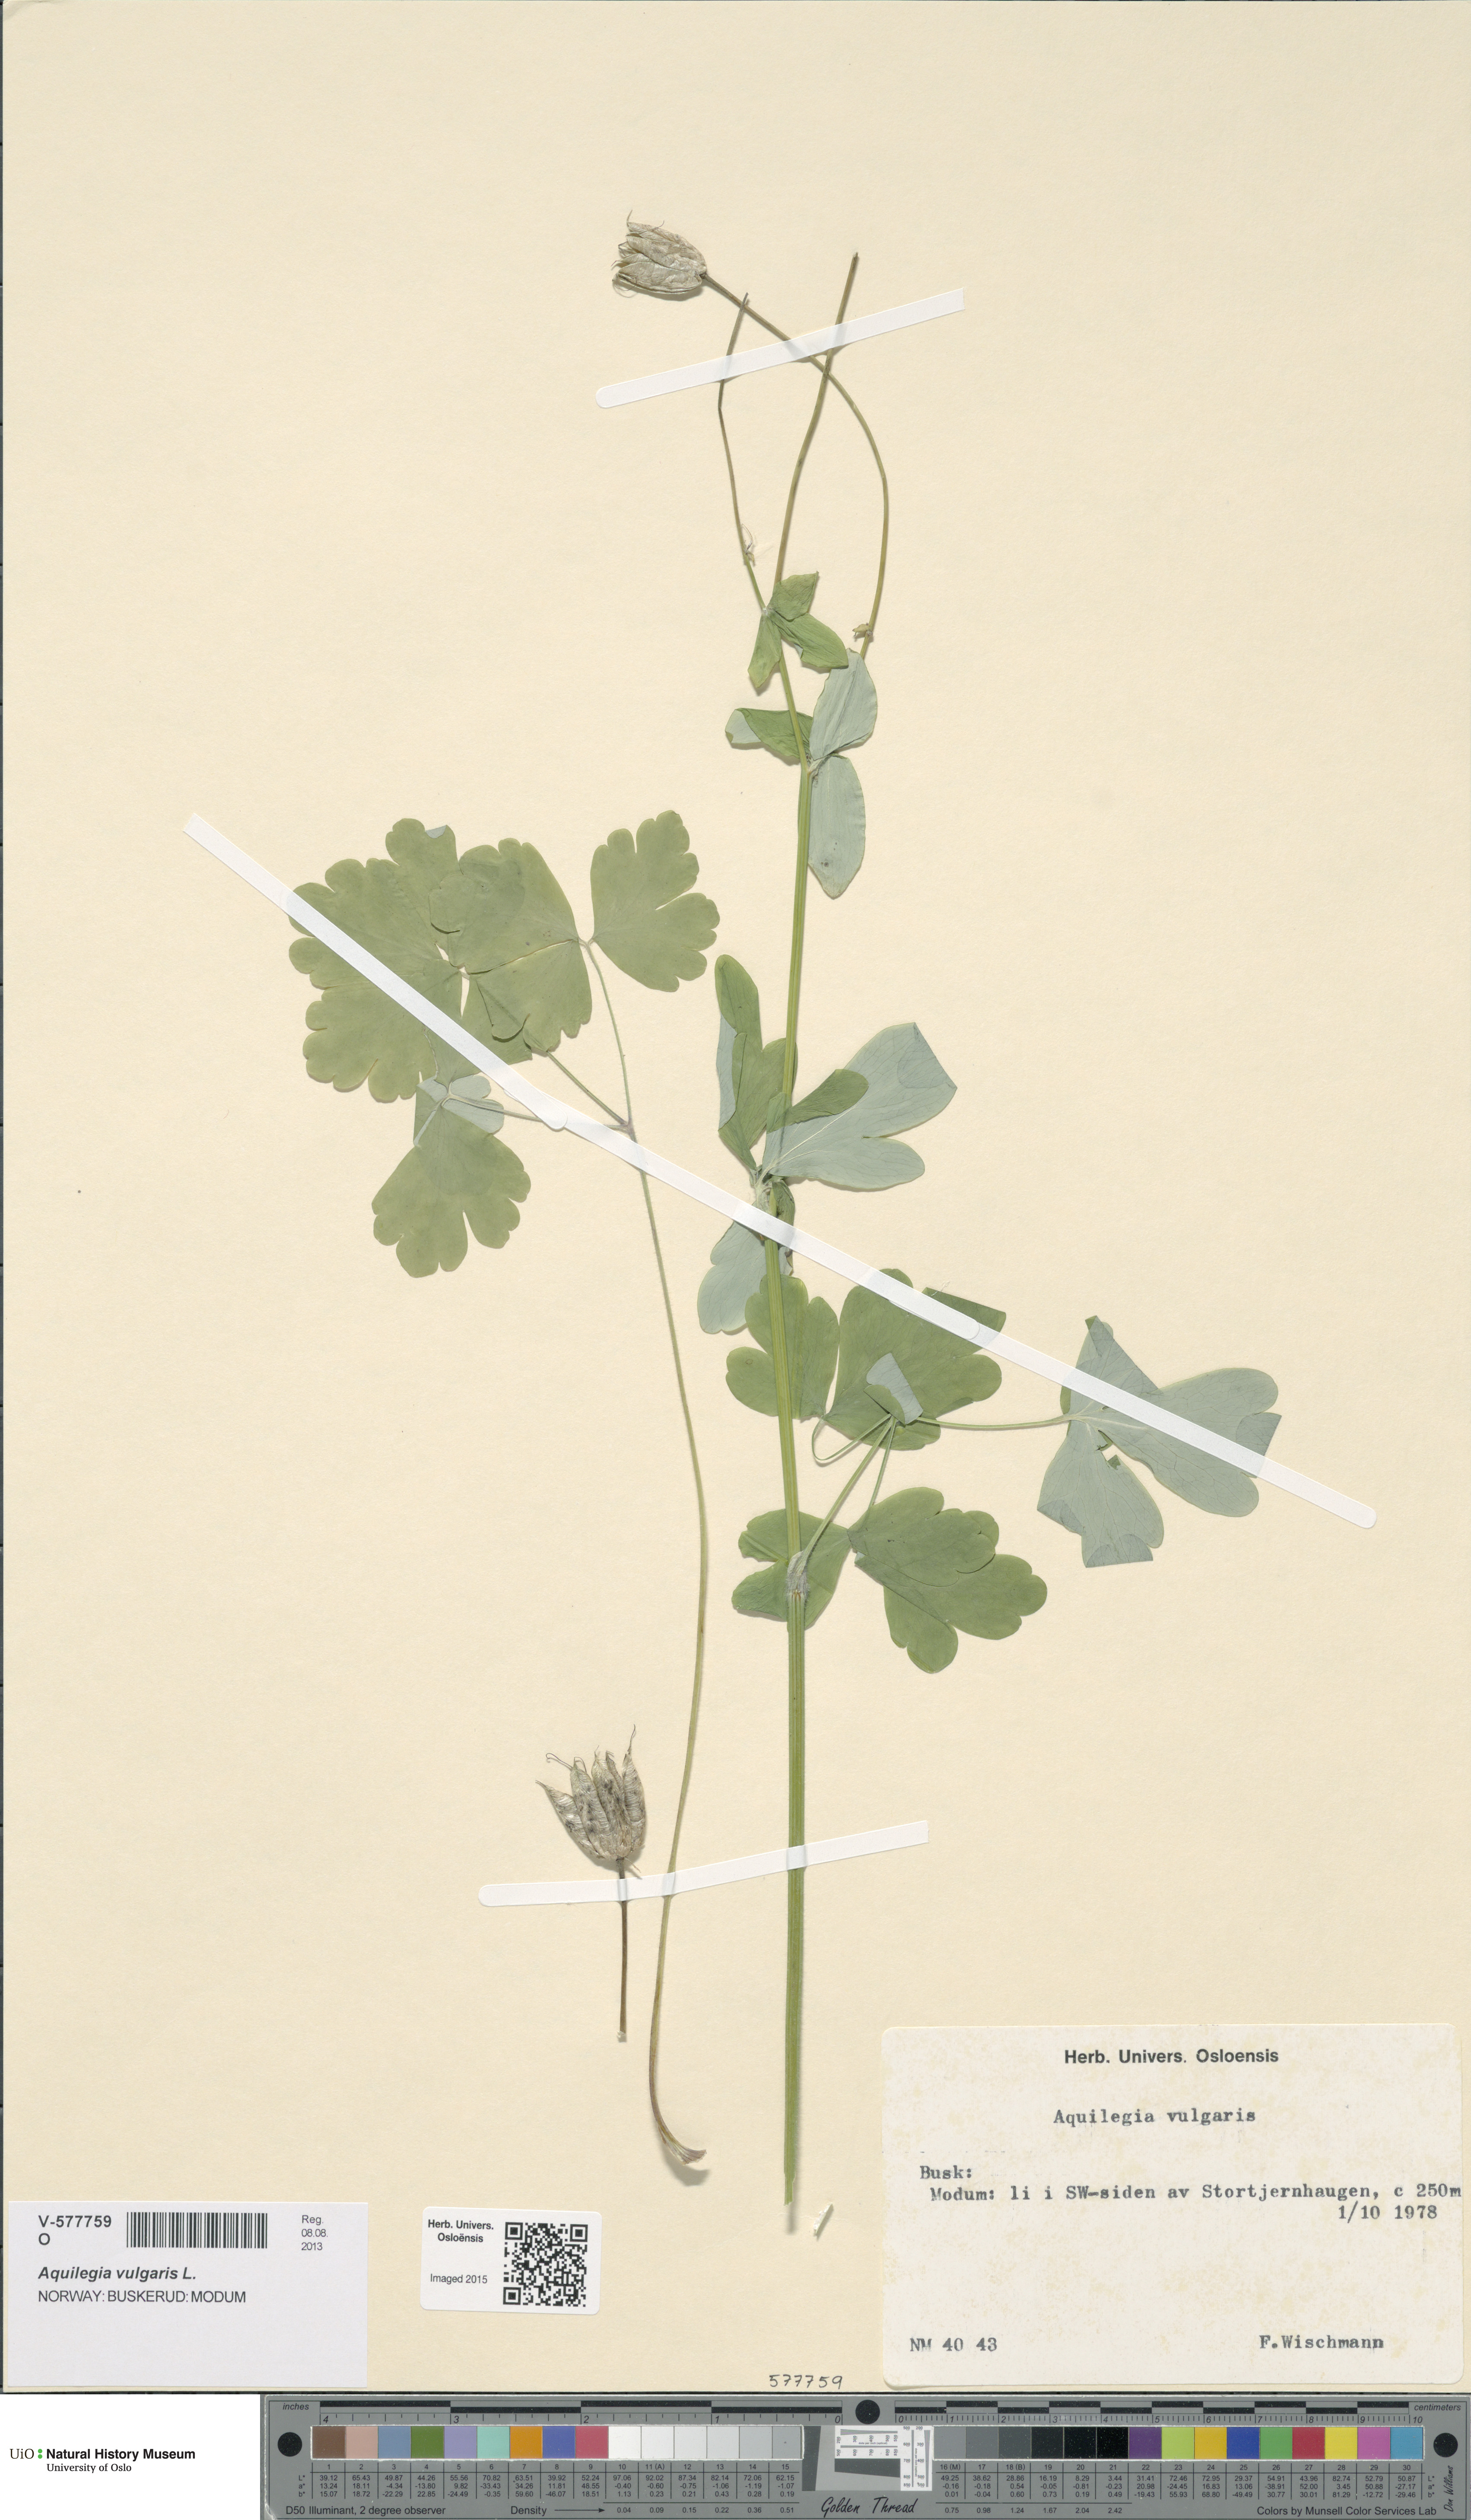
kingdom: Plantae
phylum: Tracheophyta
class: Magnoliopsida
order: Ranunculales
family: Ranunculaceae
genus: Aquilegia
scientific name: Aquilegia vulgaris
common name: Columbine
